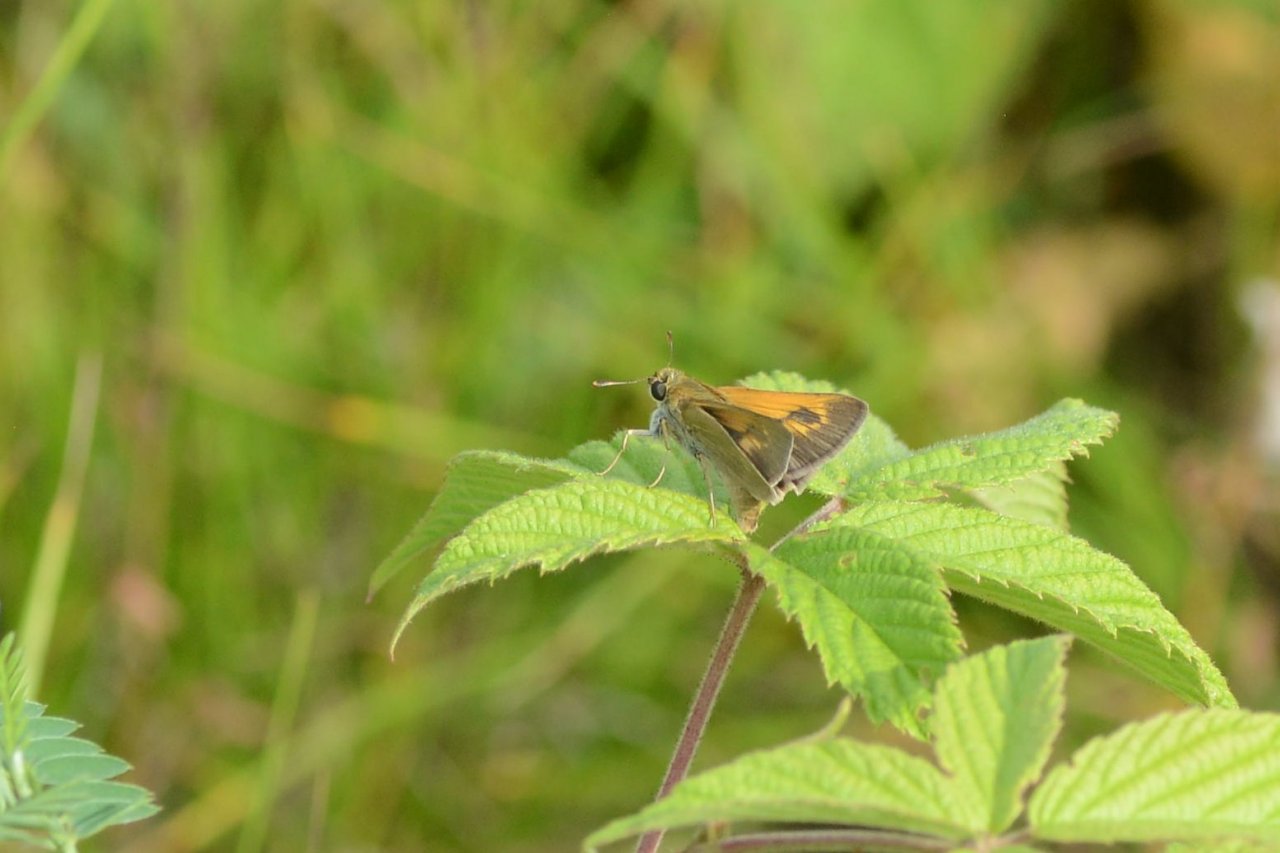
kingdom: Animalia
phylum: Arthropoda
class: Insecta
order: Lepidoptera
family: Hesperiidae
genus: Polites
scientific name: Polites
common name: Crossline Skipper
